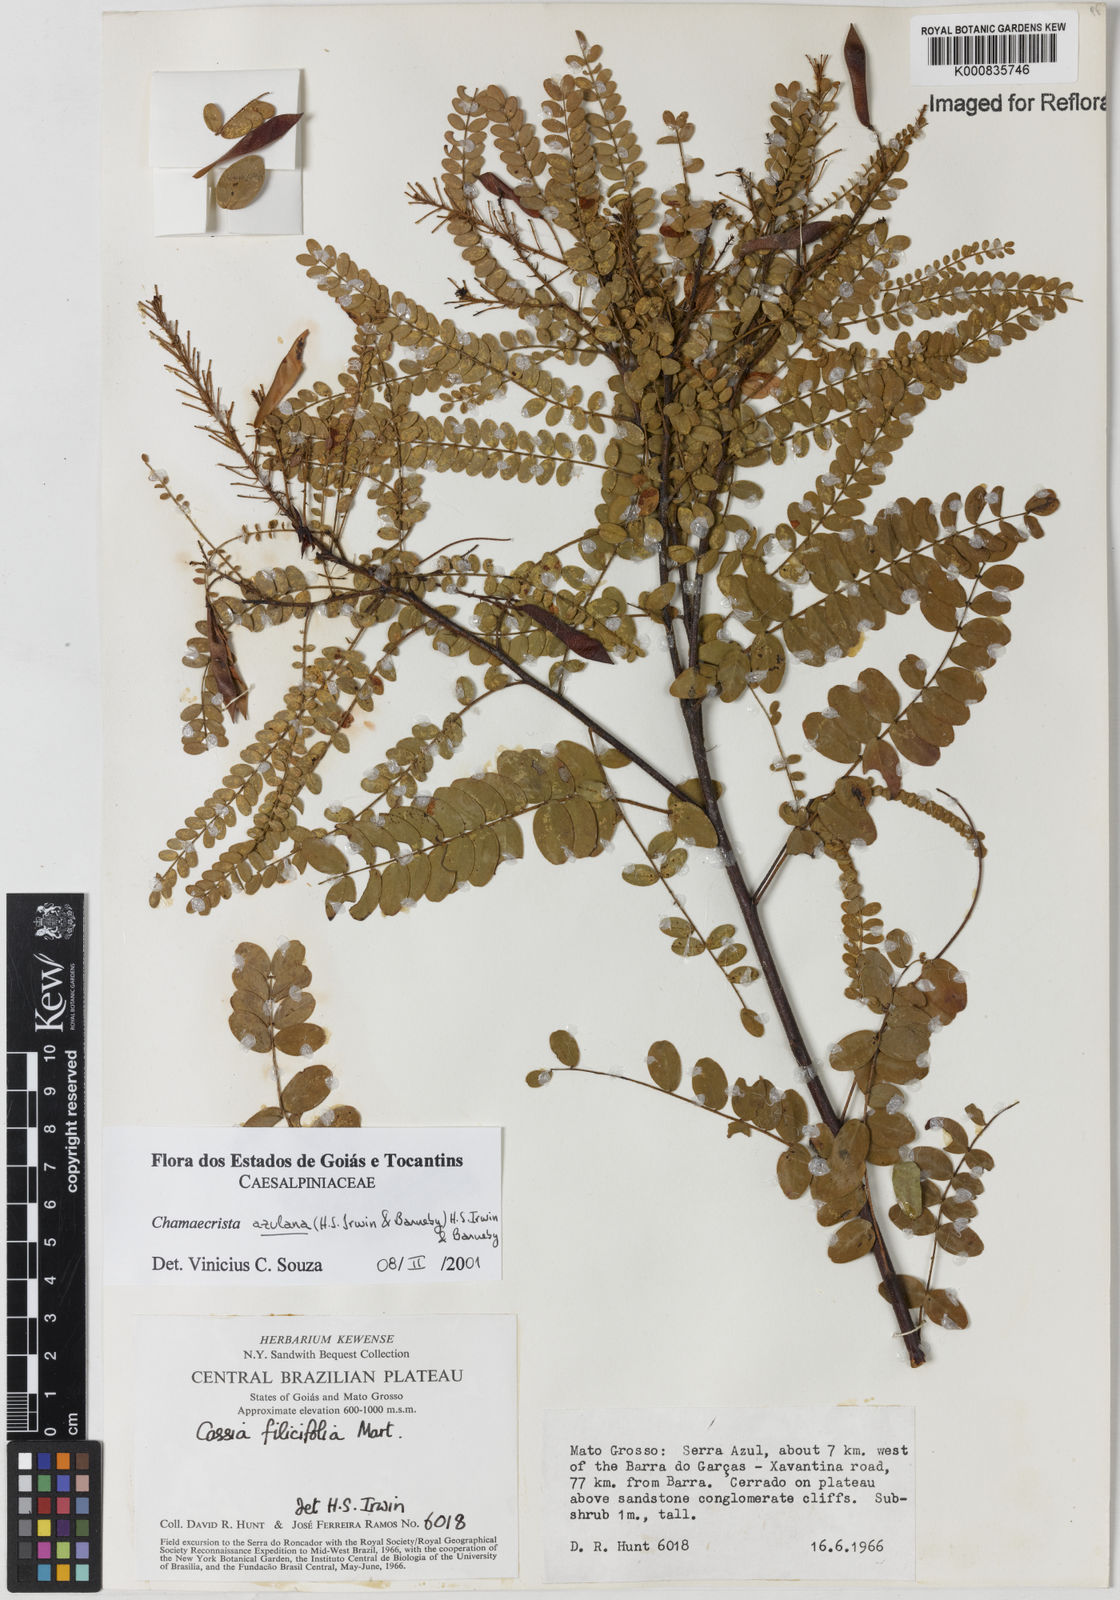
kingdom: Plantae
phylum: Tracheophyta
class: Magnoliopsida
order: Fabales
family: Fabaceae
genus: Chamaecrista
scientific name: Chamaecrista azulana
